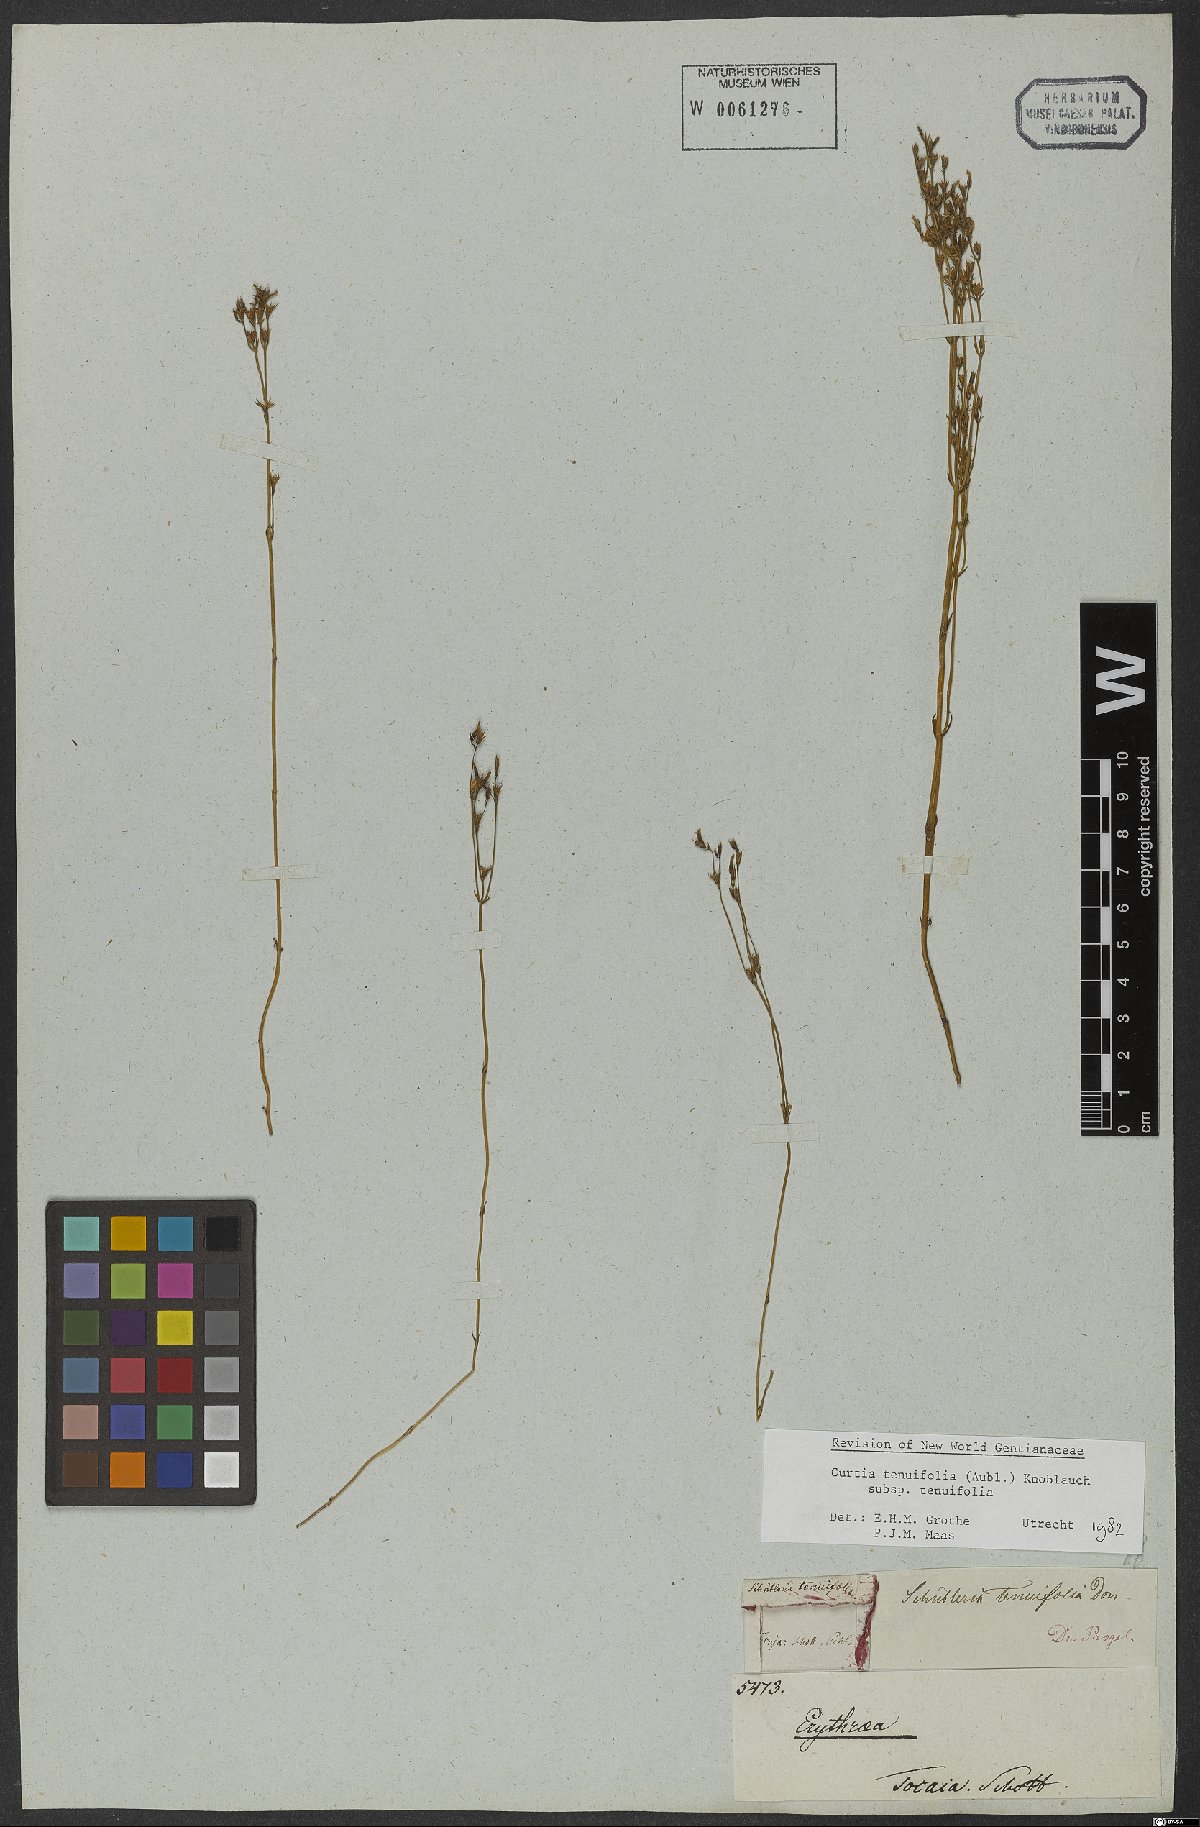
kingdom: Plantae
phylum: Tracheophyta
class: Magnoliopsida
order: Gentianales
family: Gentianaceae
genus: Curtia
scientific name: Curtia tenuifolia
